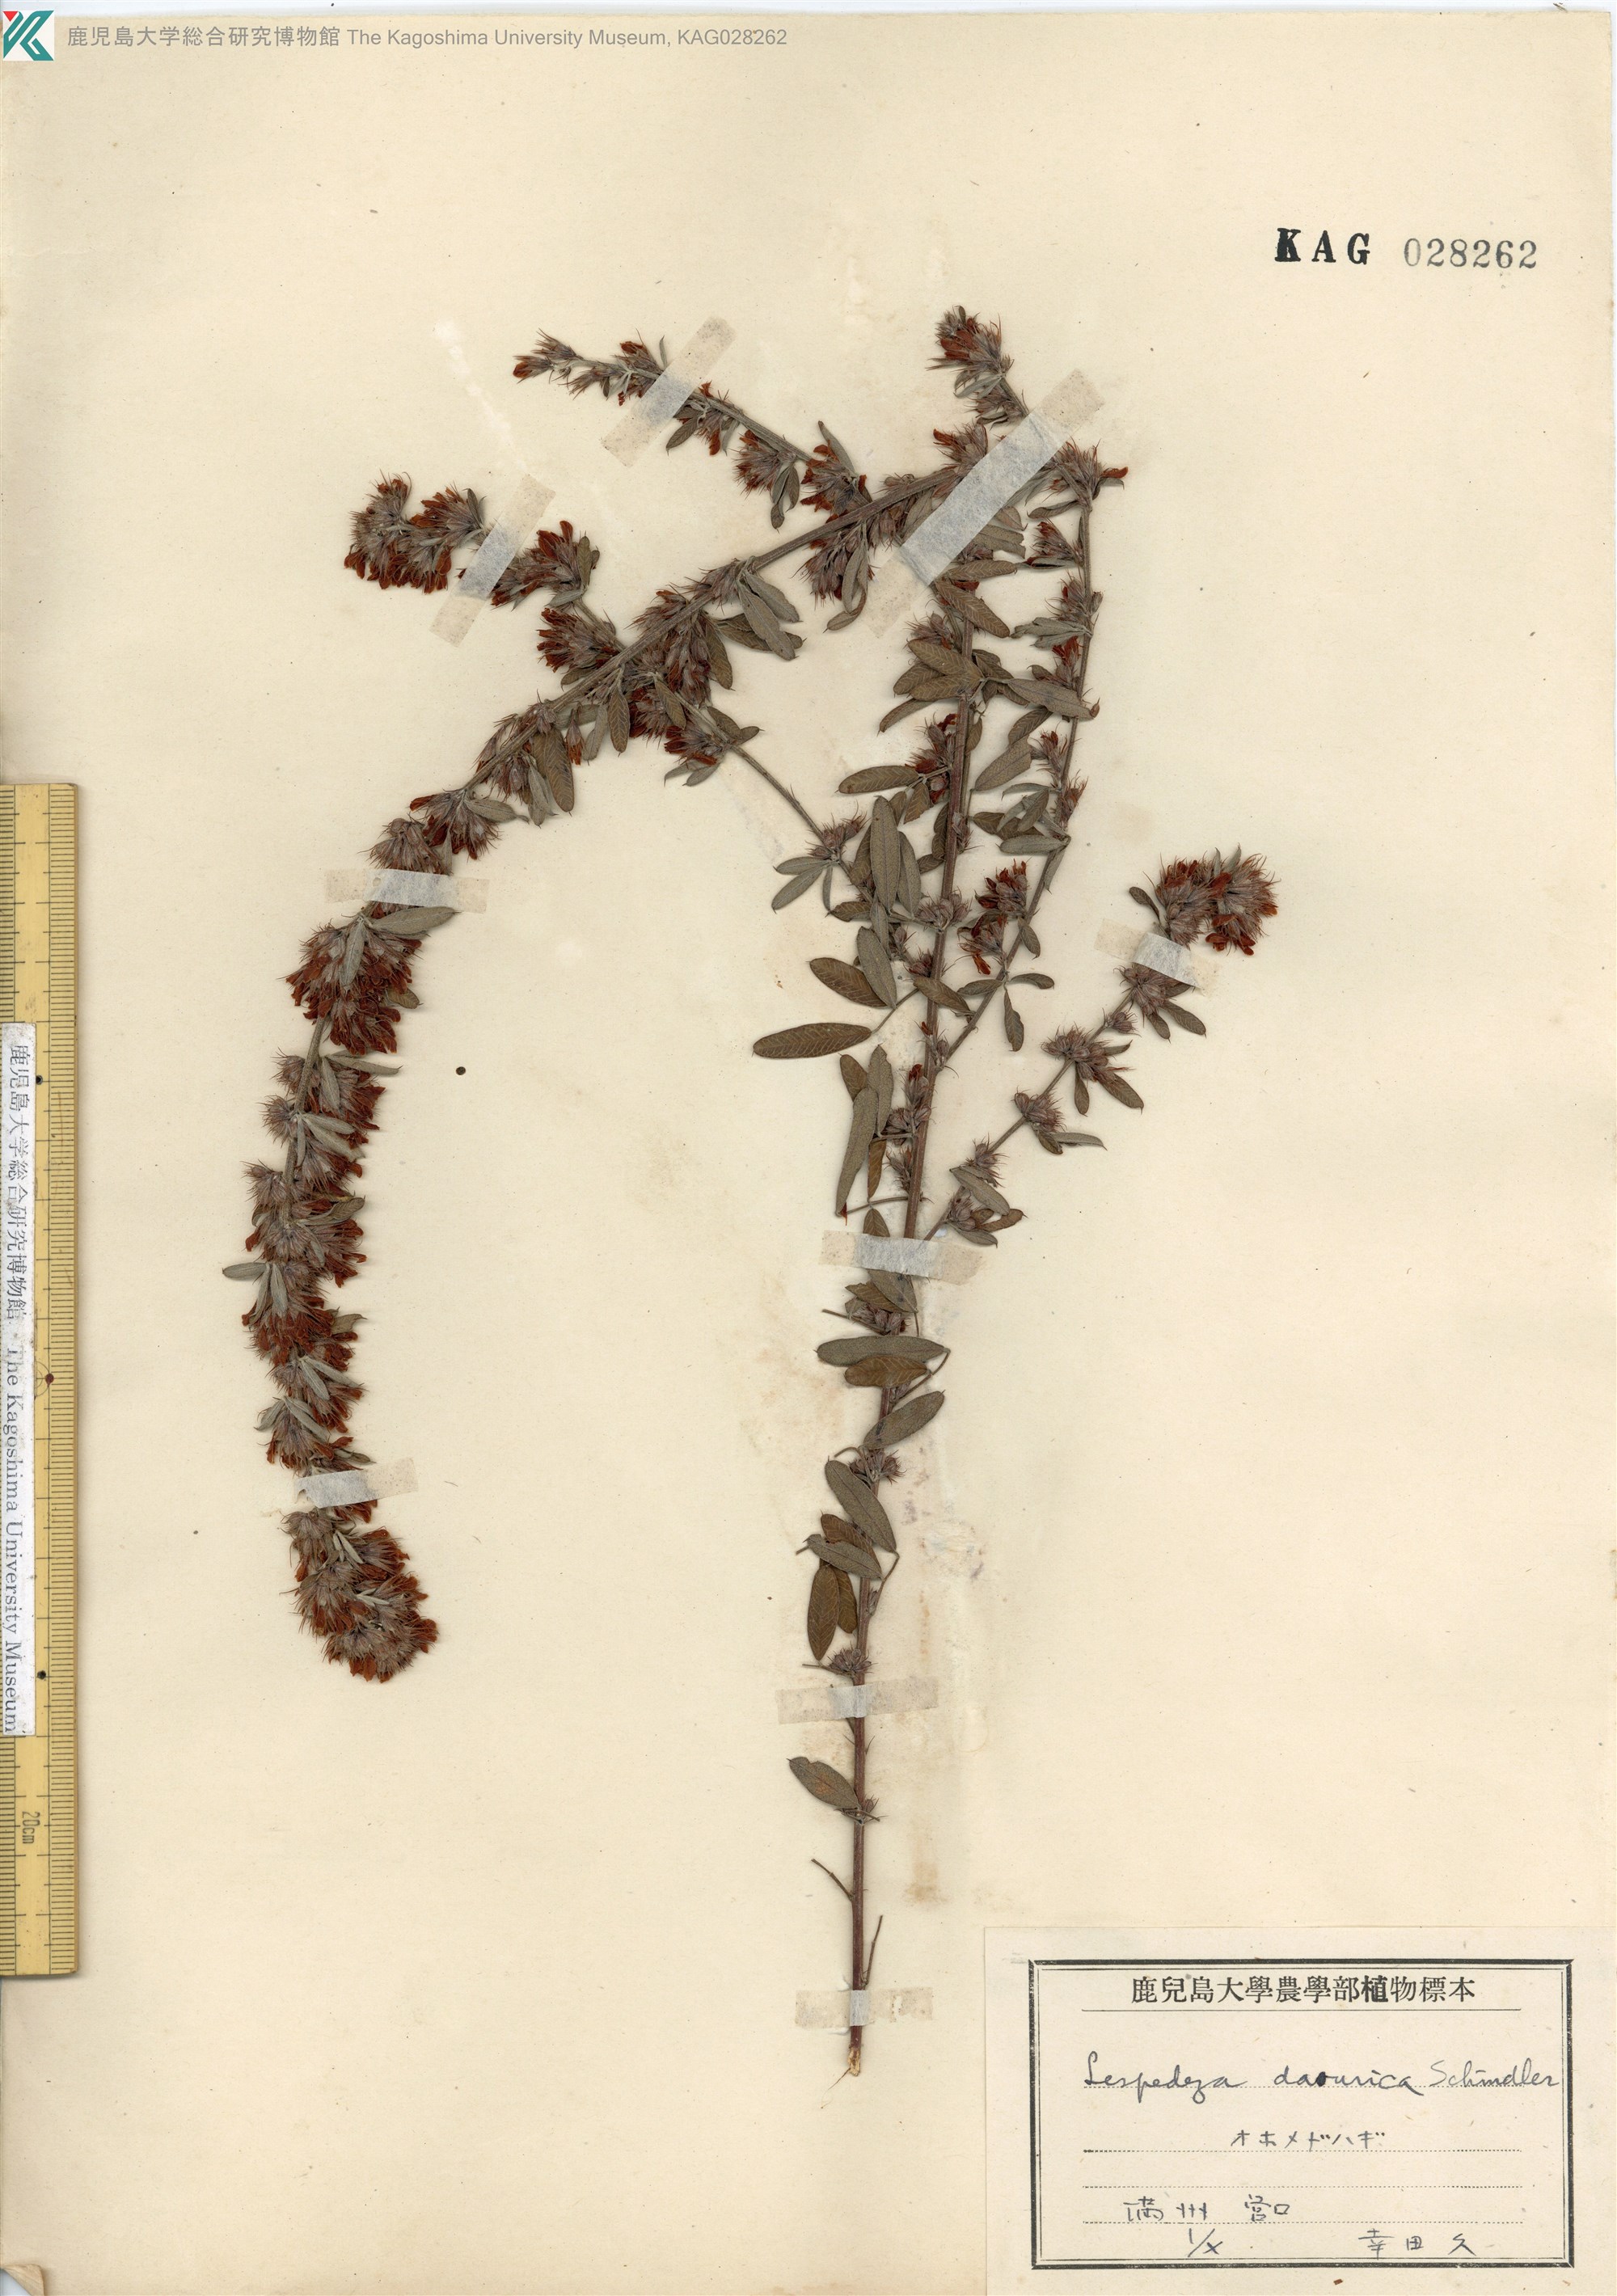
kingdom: Plantae
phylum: Tracheophyta
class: Magnoliopsida
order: Fabales
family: Fabaceae
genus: Lespedeza
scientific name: Lespedeza daurica
